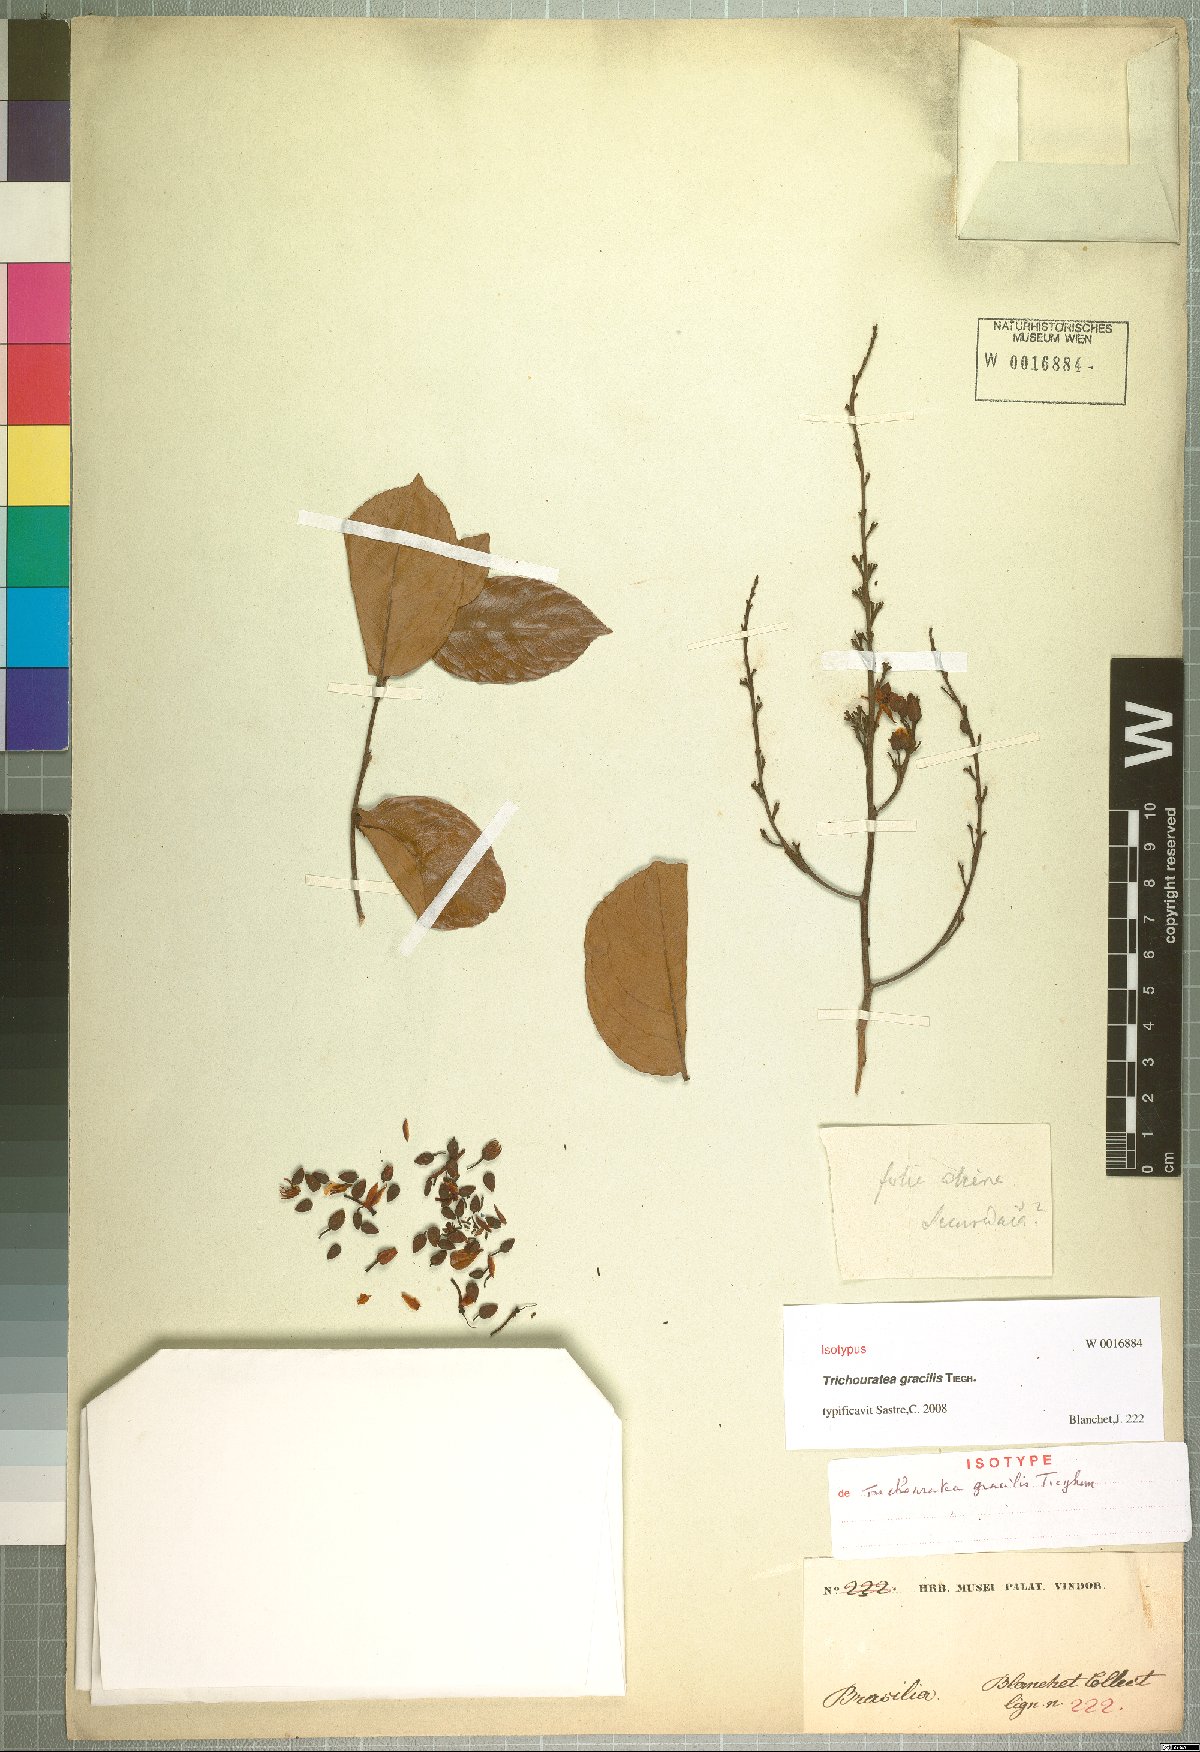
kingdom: Plantae
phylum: Tracheophyta
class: Magnoliopsida
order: Malpighiales
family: Ochnaceae
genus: Ouratea
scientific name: Ouratea parvifolia
